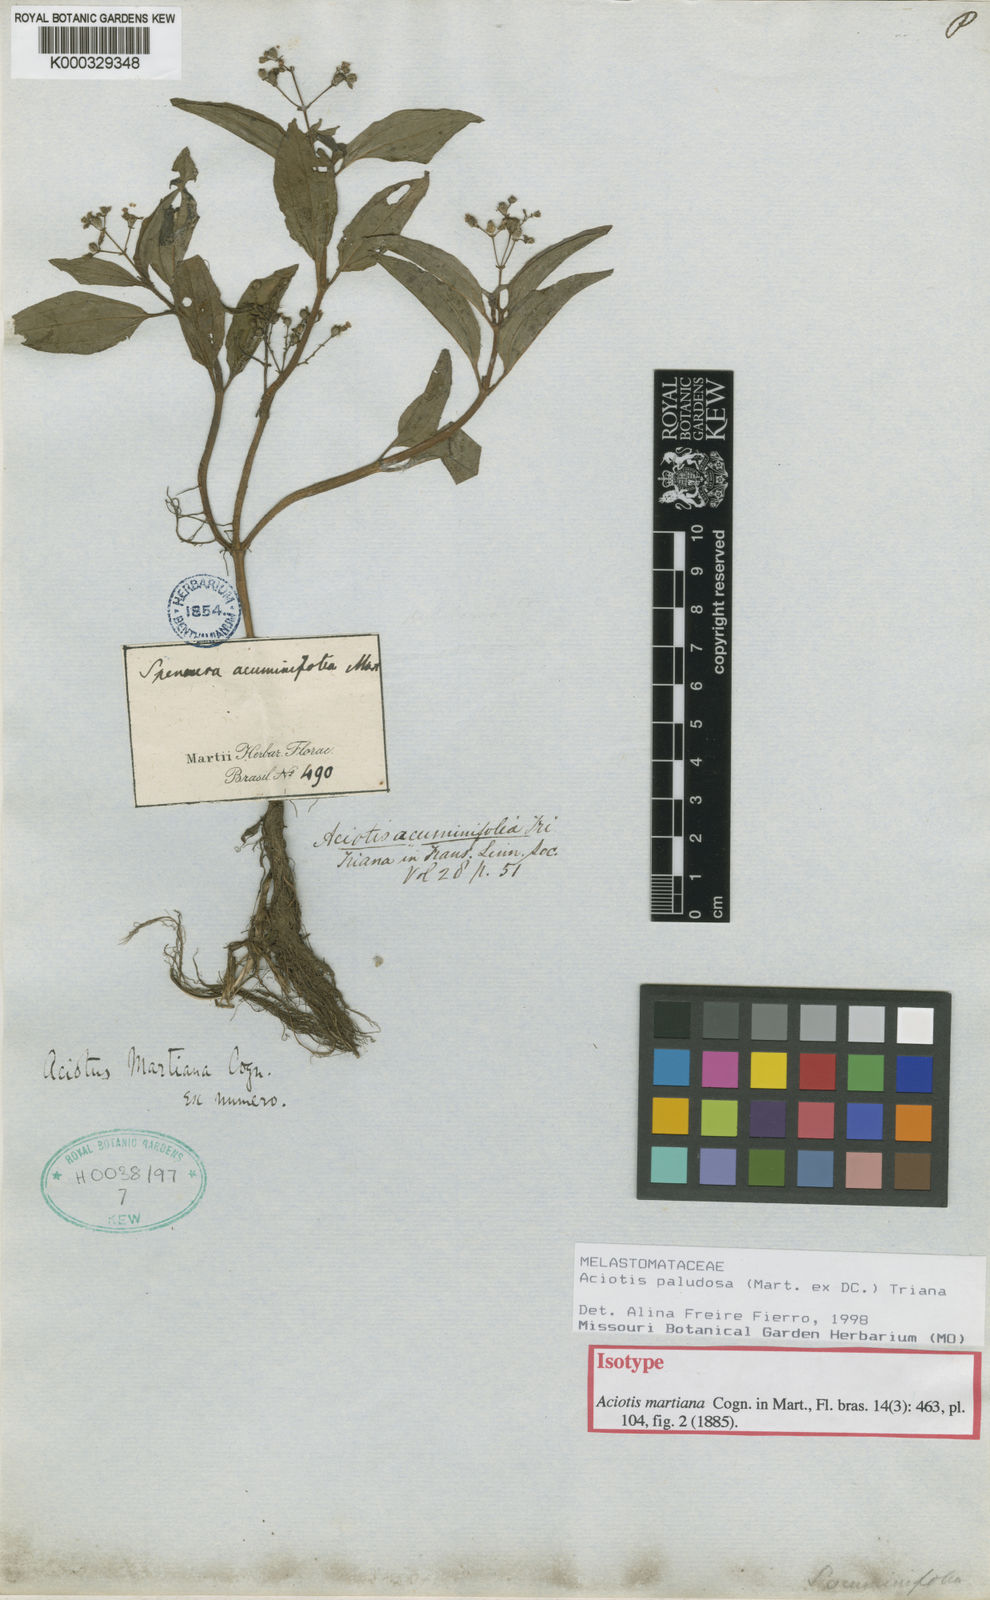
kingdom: Plantae
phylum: Tracheophyta
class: Magnoliopsida
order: Myrtales
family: Melastomataceae
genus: Aciotis
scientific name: Aciotis paludosa
